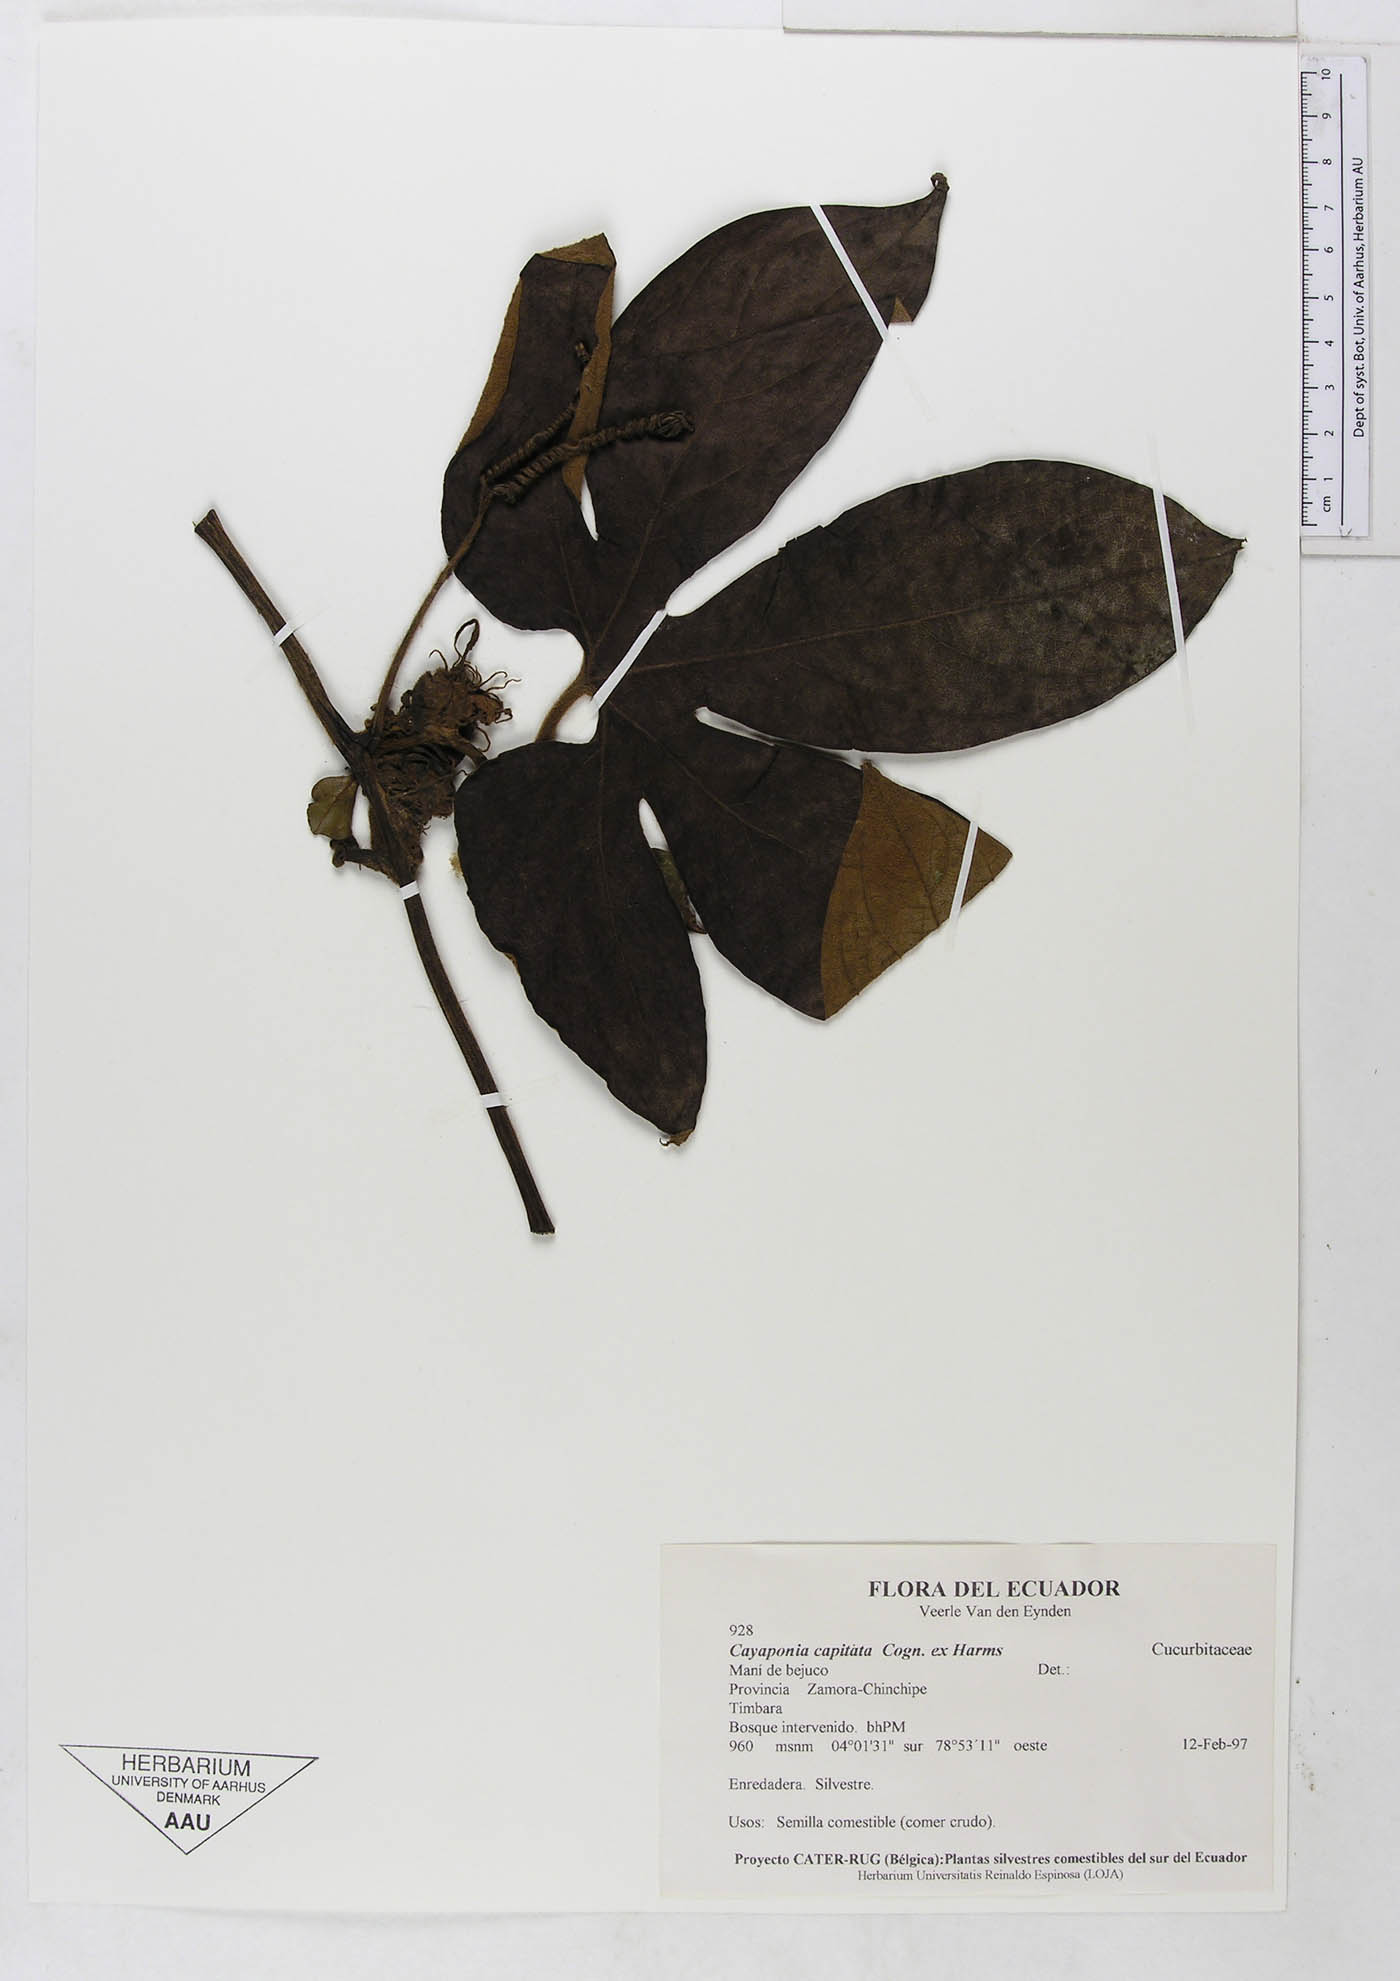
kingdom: Plantae
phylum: Tracheophyta
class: Magnoliopsida
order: Cucurbitales
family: Cucurbitaceae
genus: Cayaponia
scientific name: Cayaponia capitata
